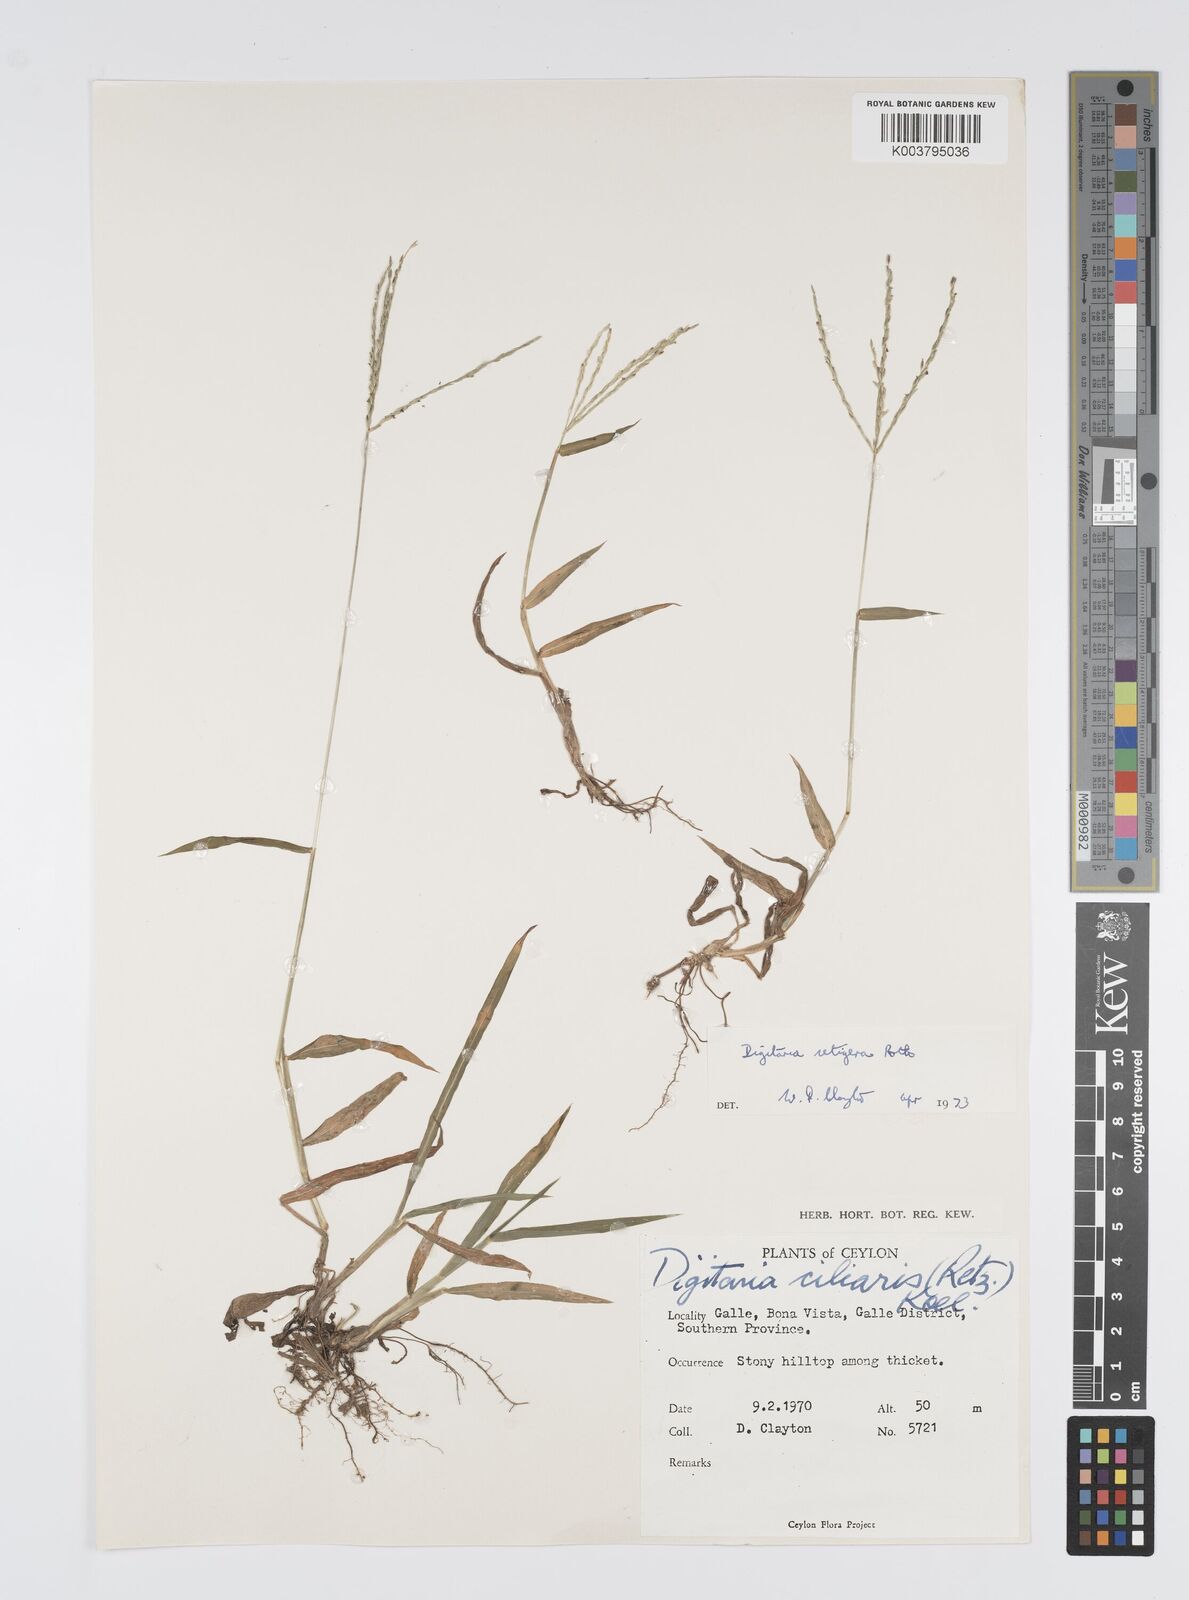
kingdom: Plantae
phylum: Tracheophyta
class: Liliopsida
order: Poales
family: Poaceae
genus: Digitaria
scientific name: Digitaria setigera
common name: East indian crabgrass
